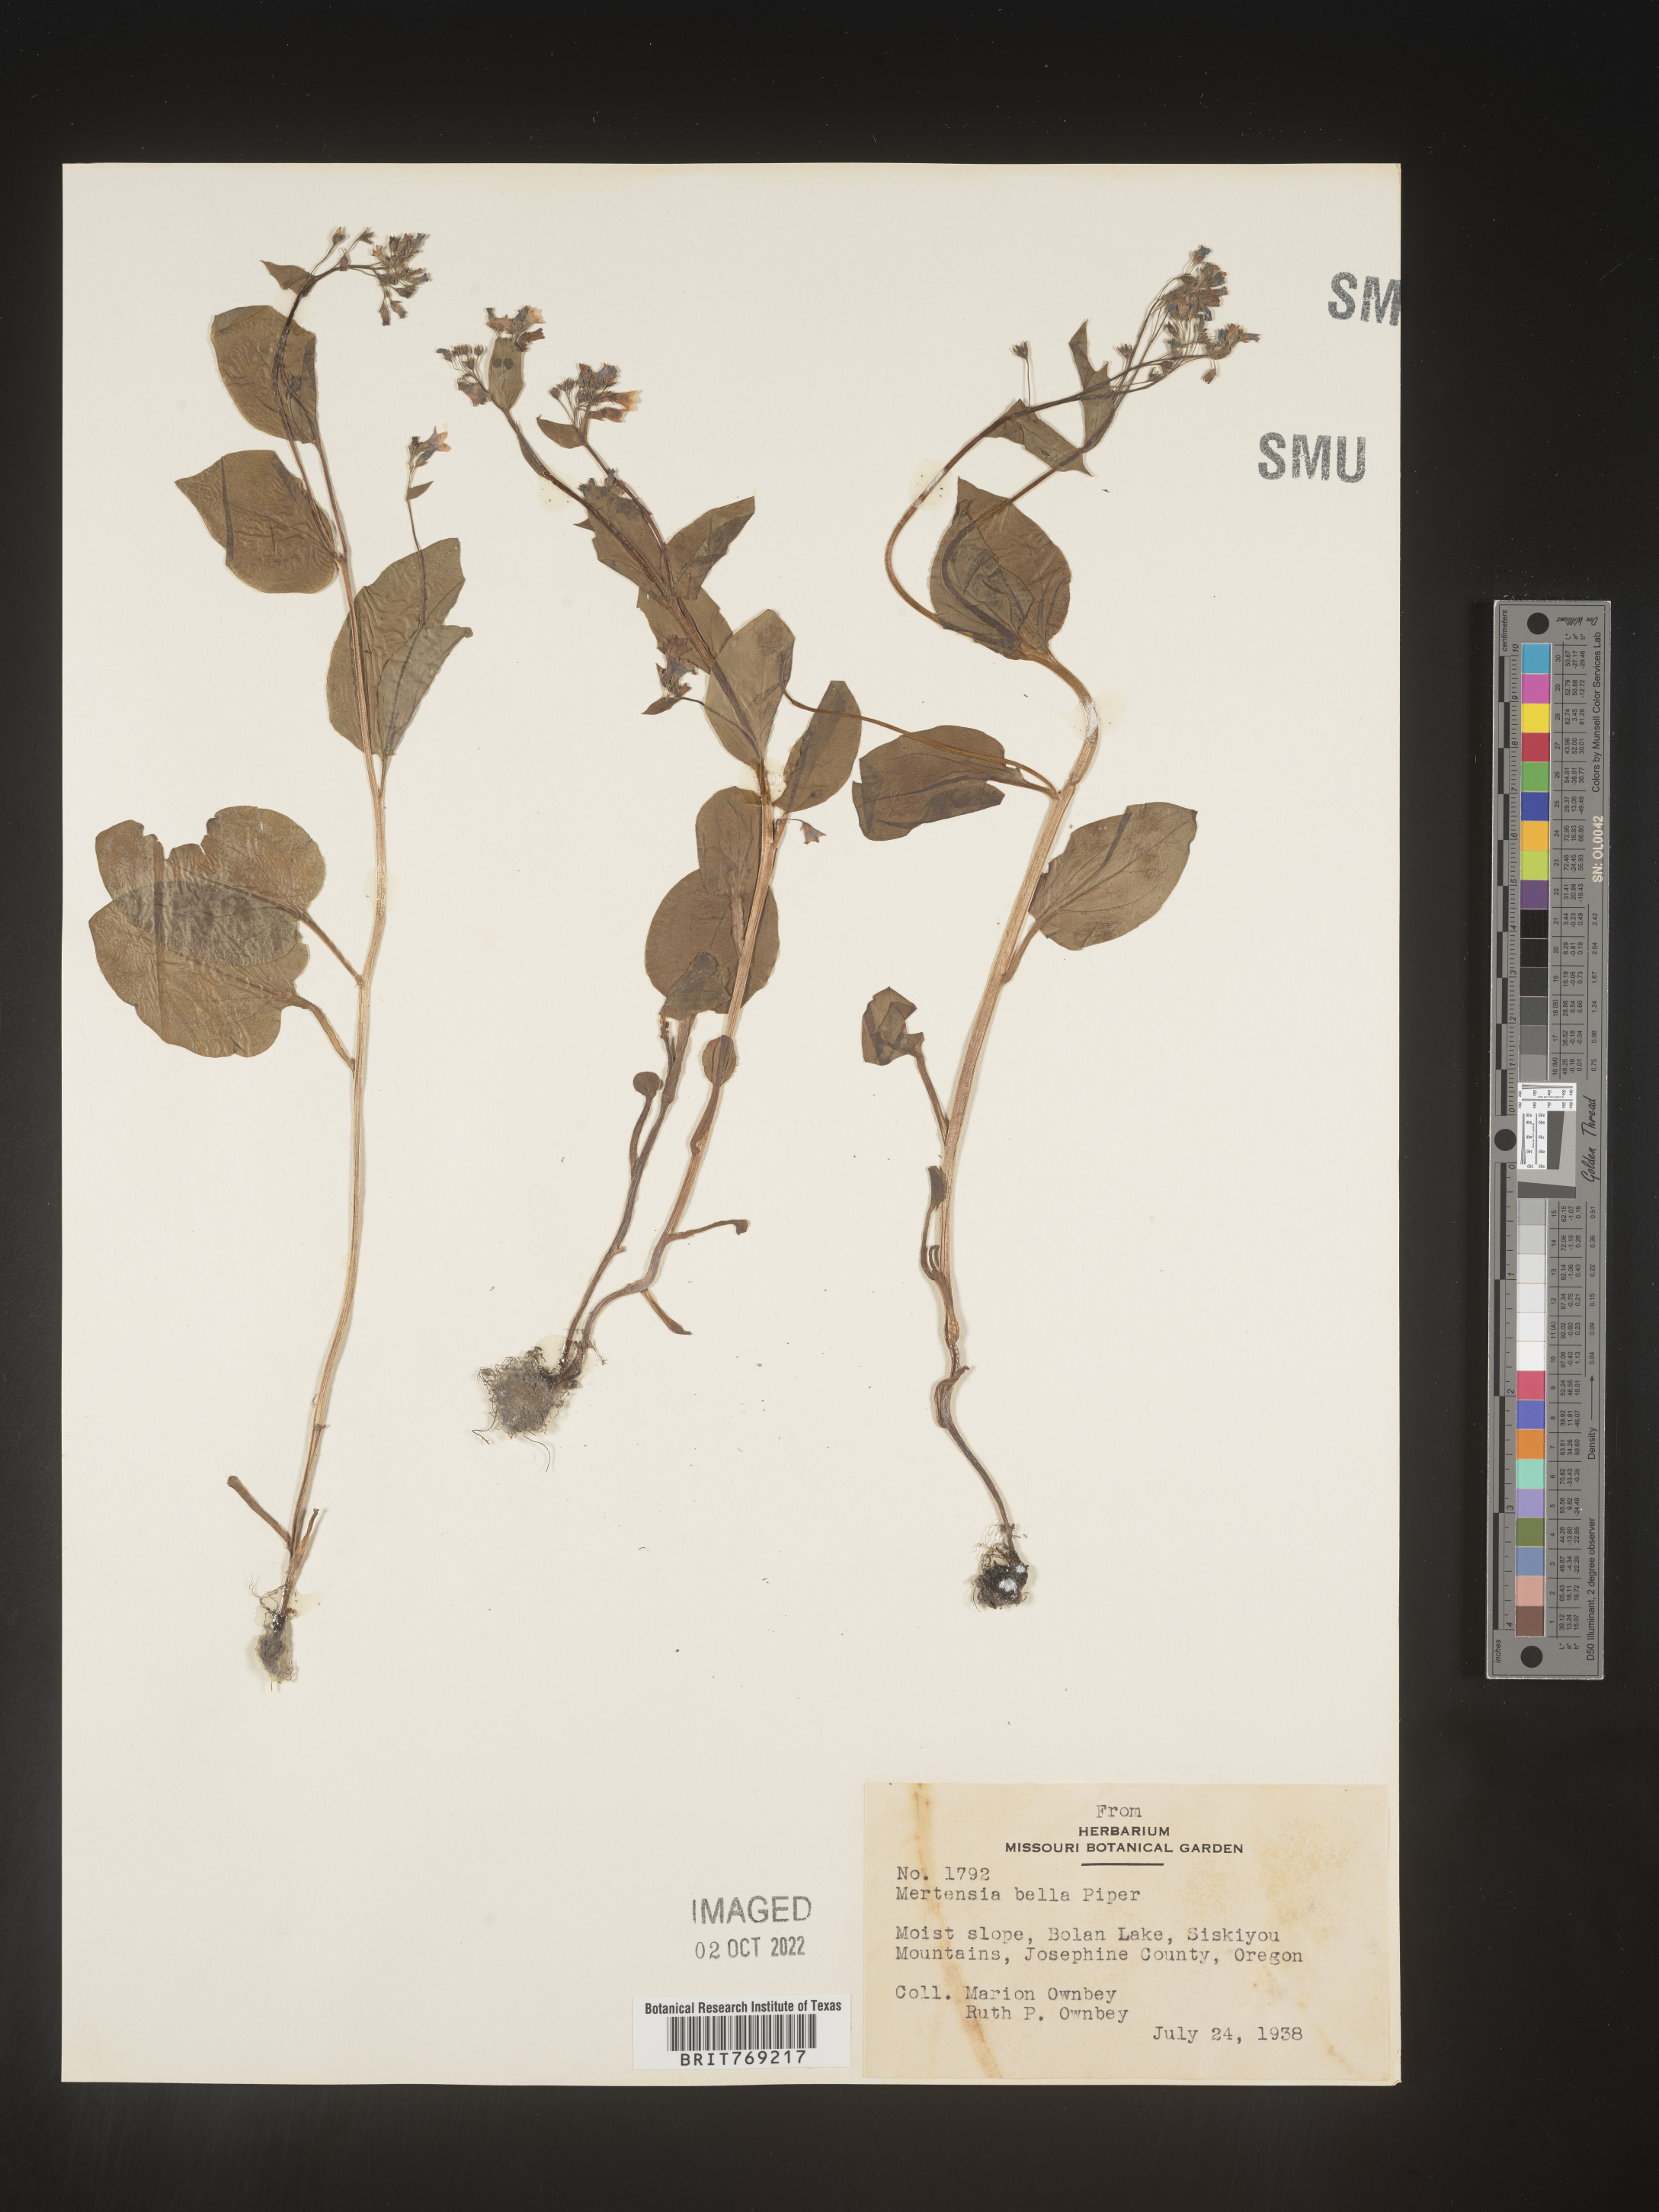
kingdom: Plantae
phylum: Tracheophyta
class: Magnoliopsida
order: Boraginales
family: Boraginaceae
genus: Mertensia
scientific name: Mertensia
